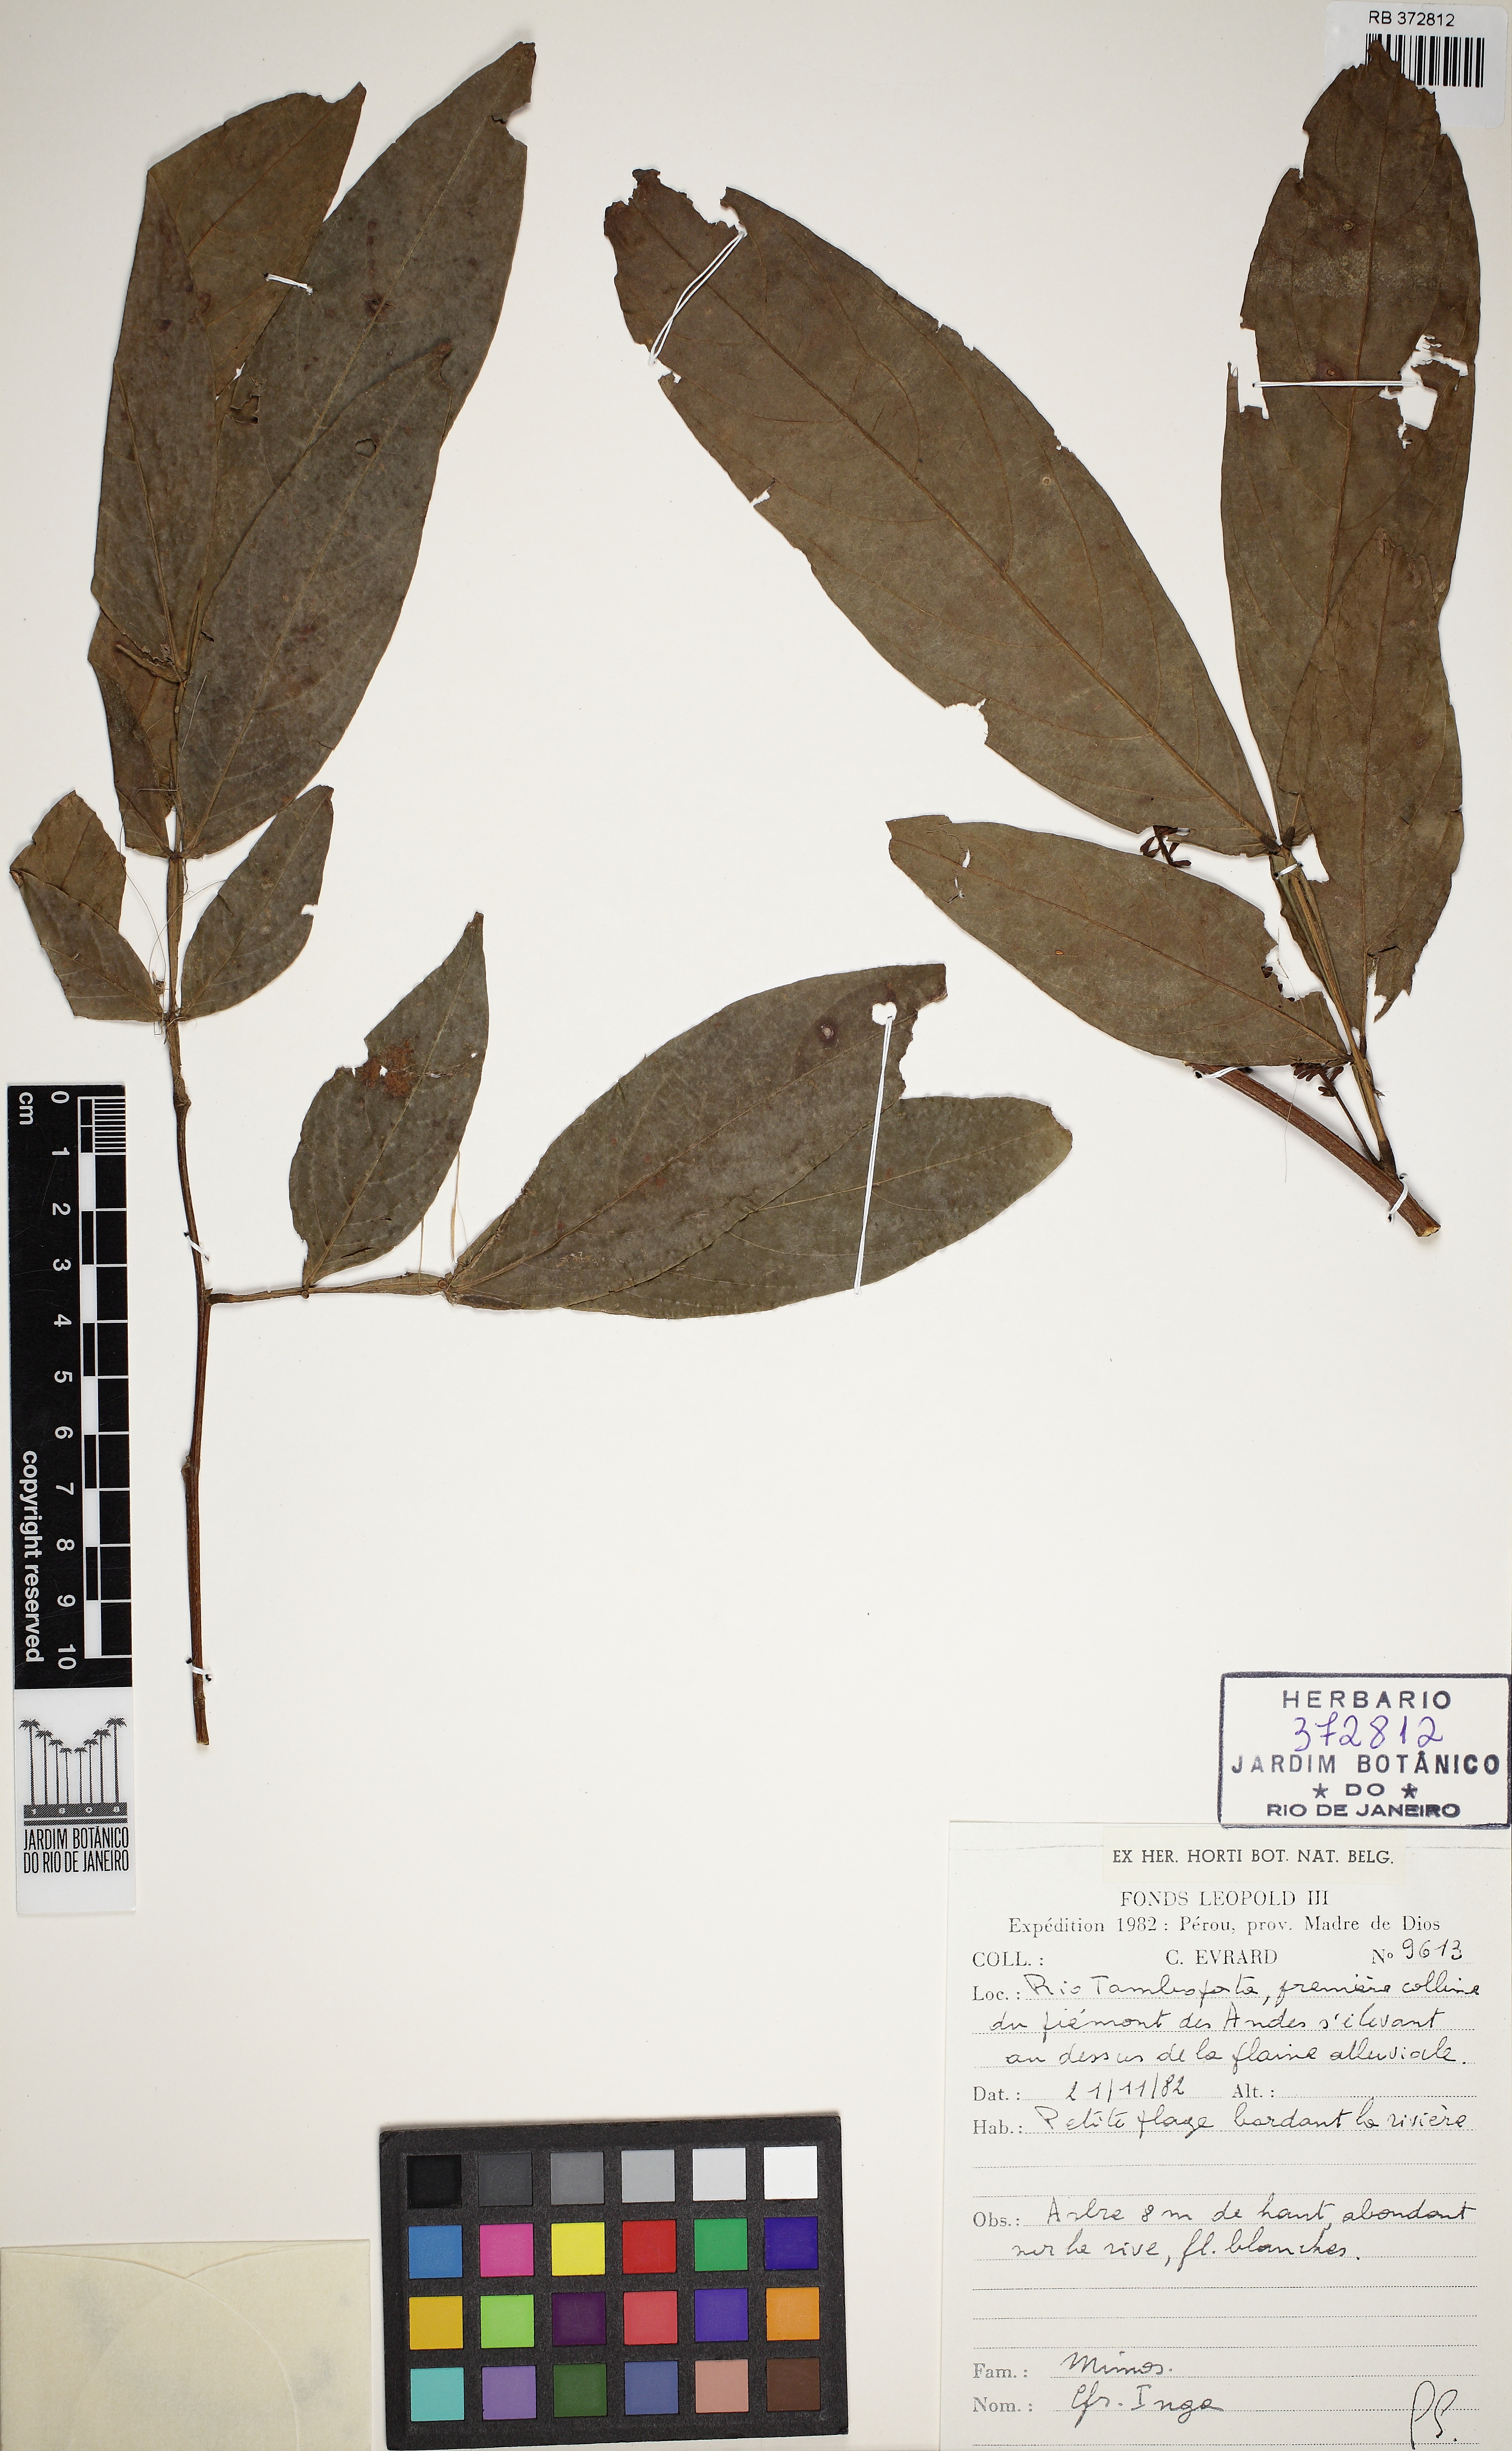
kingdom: Plantae
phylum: Tracheophyta
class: Magnoliopsida
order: Fabales
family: Fabaceae
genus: Inga
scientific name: Inga
